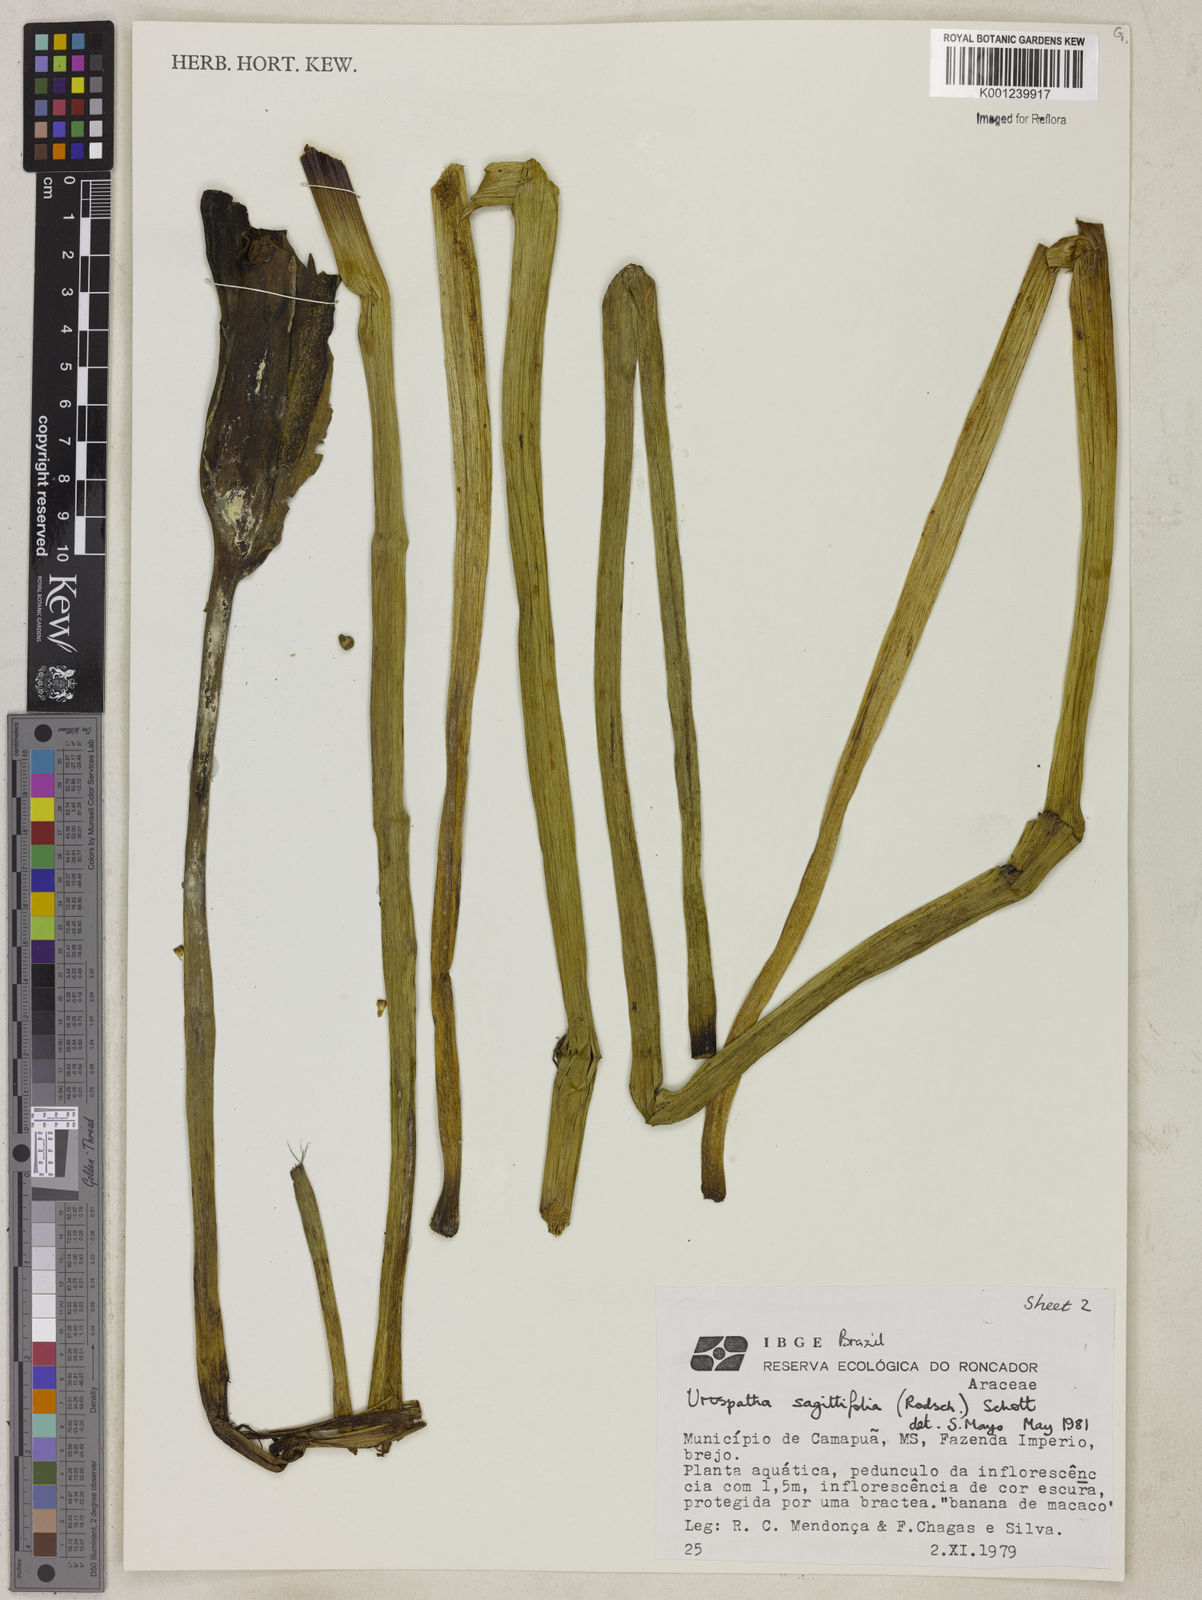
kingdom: Plantae
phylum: Tracheophyta
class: Liliopsida
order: Alismatales
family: Araceae
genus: Urospatha
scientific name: Urospatha sagittifolia
